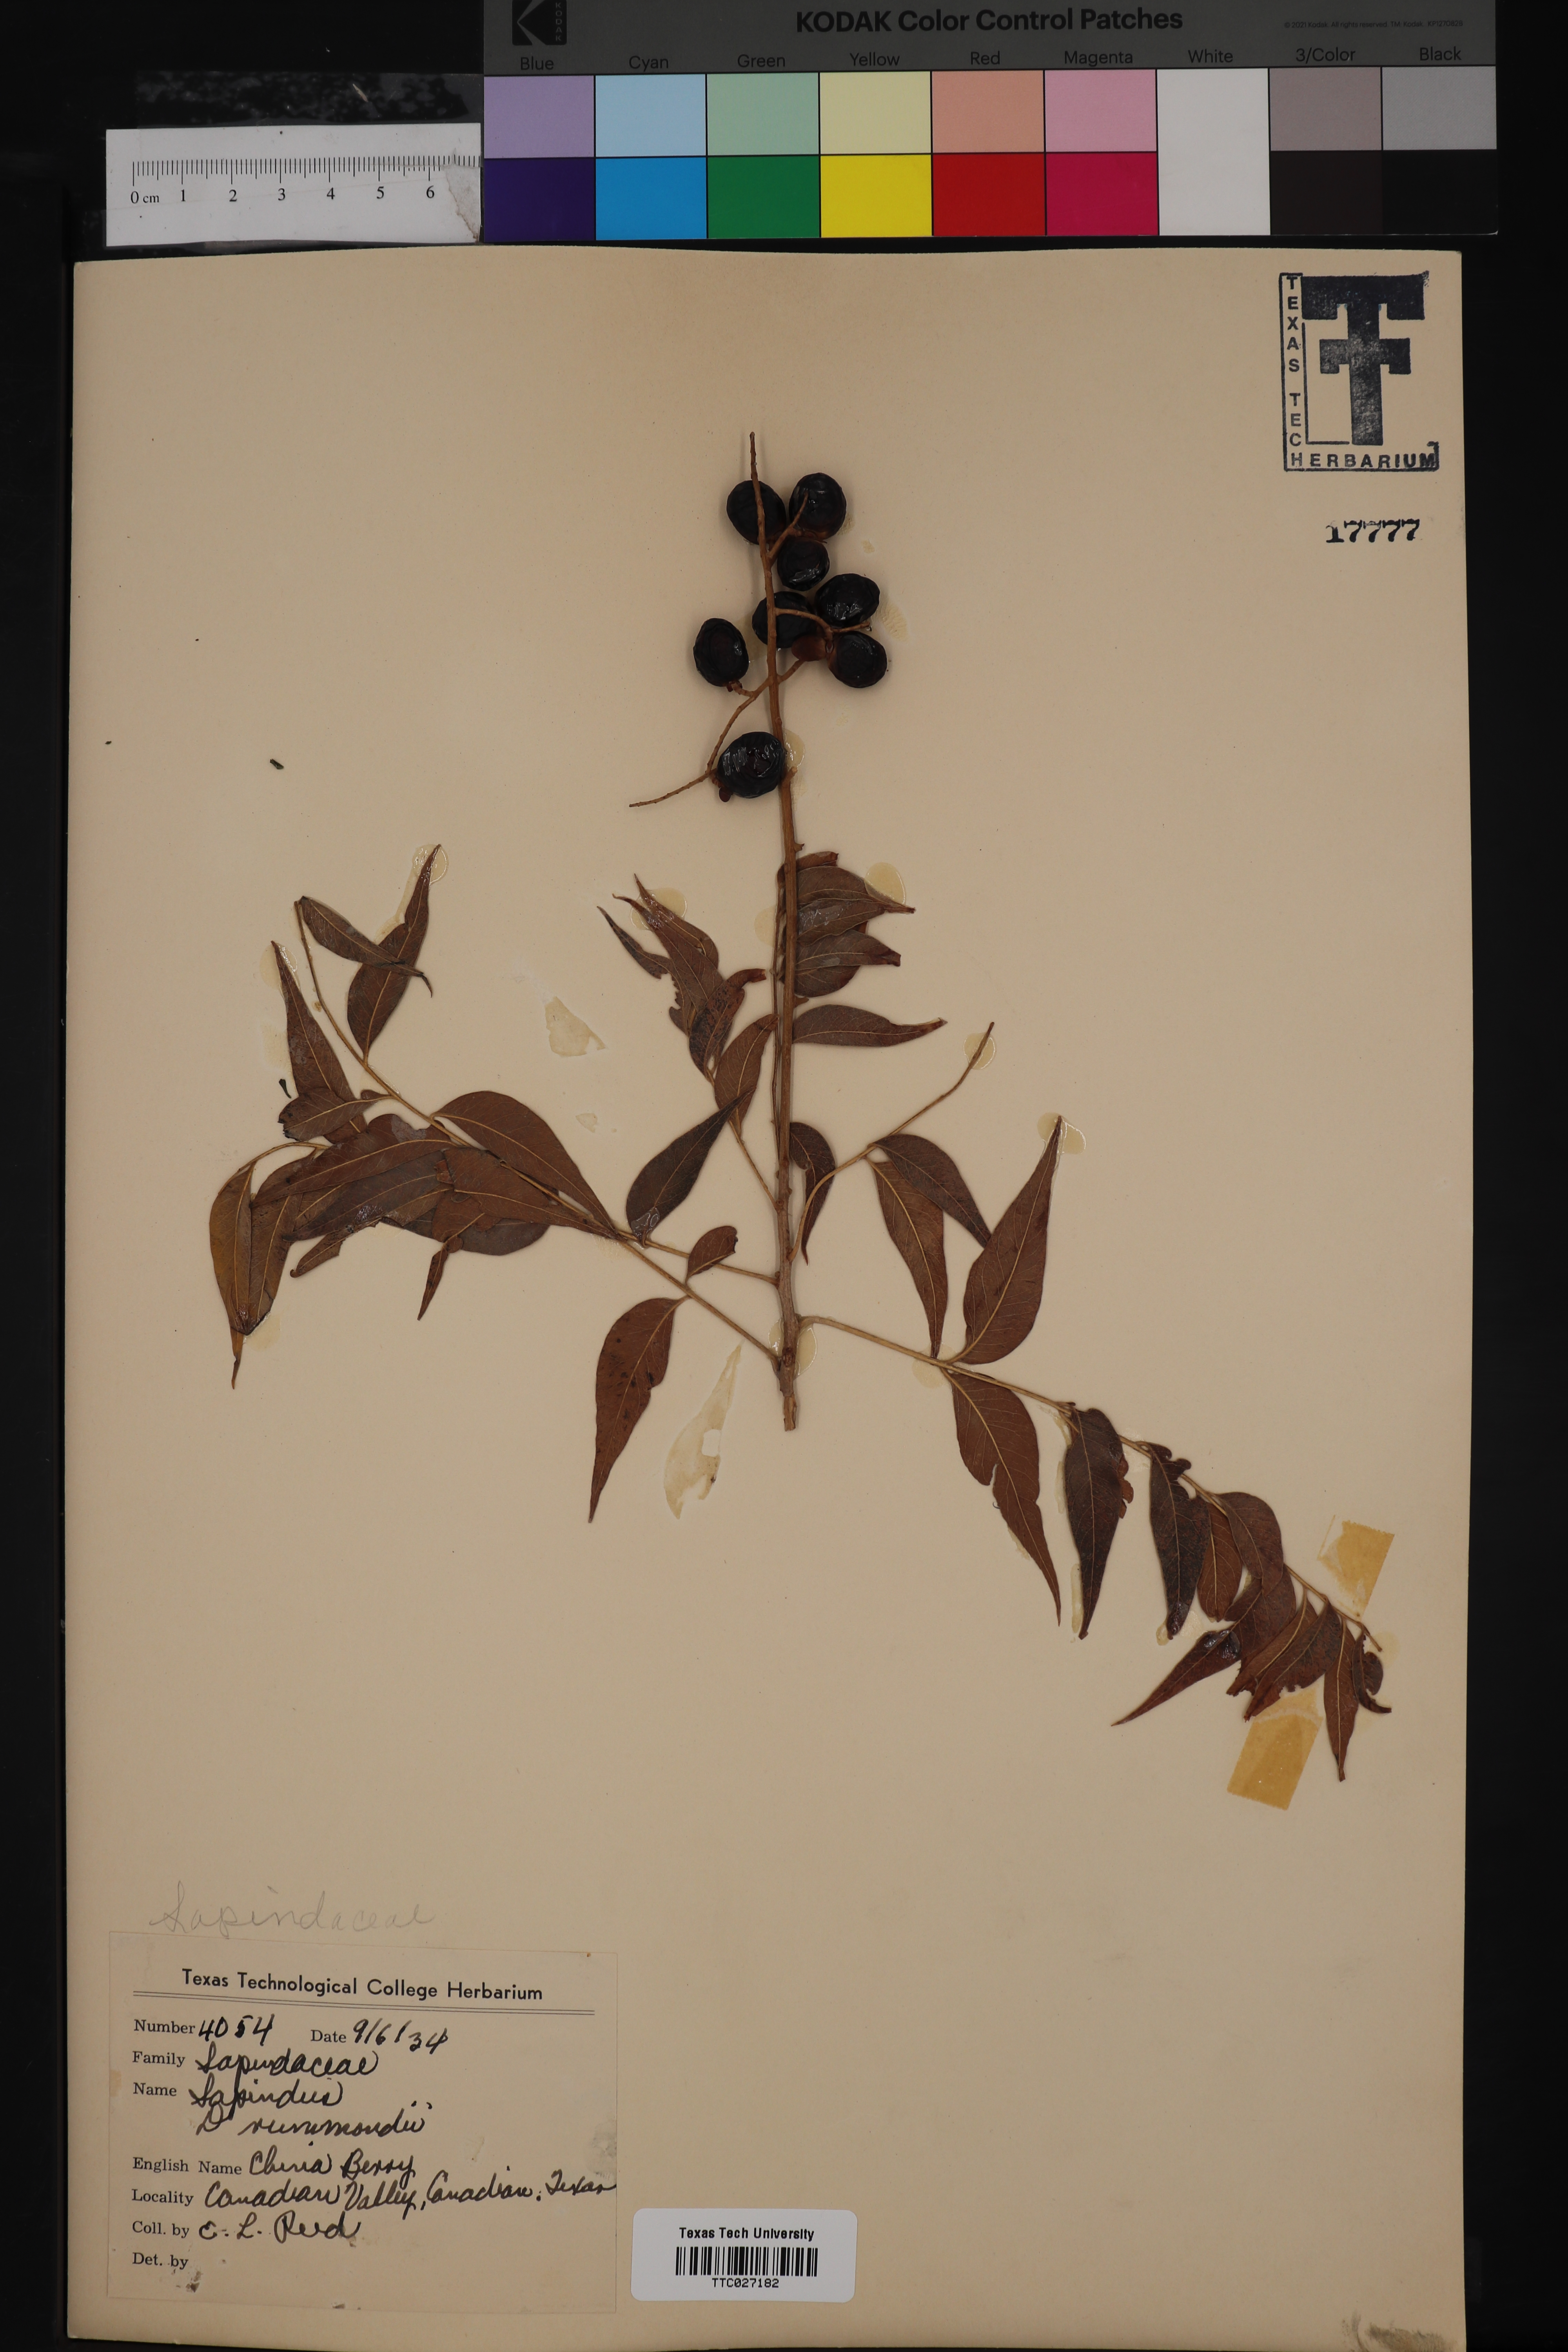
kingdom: Plantae
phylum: Tracheophyta
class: Magnoliopsida
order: Sapindales
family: Sapindaceae
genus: Sapindus
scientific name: Sapindus drummondii
